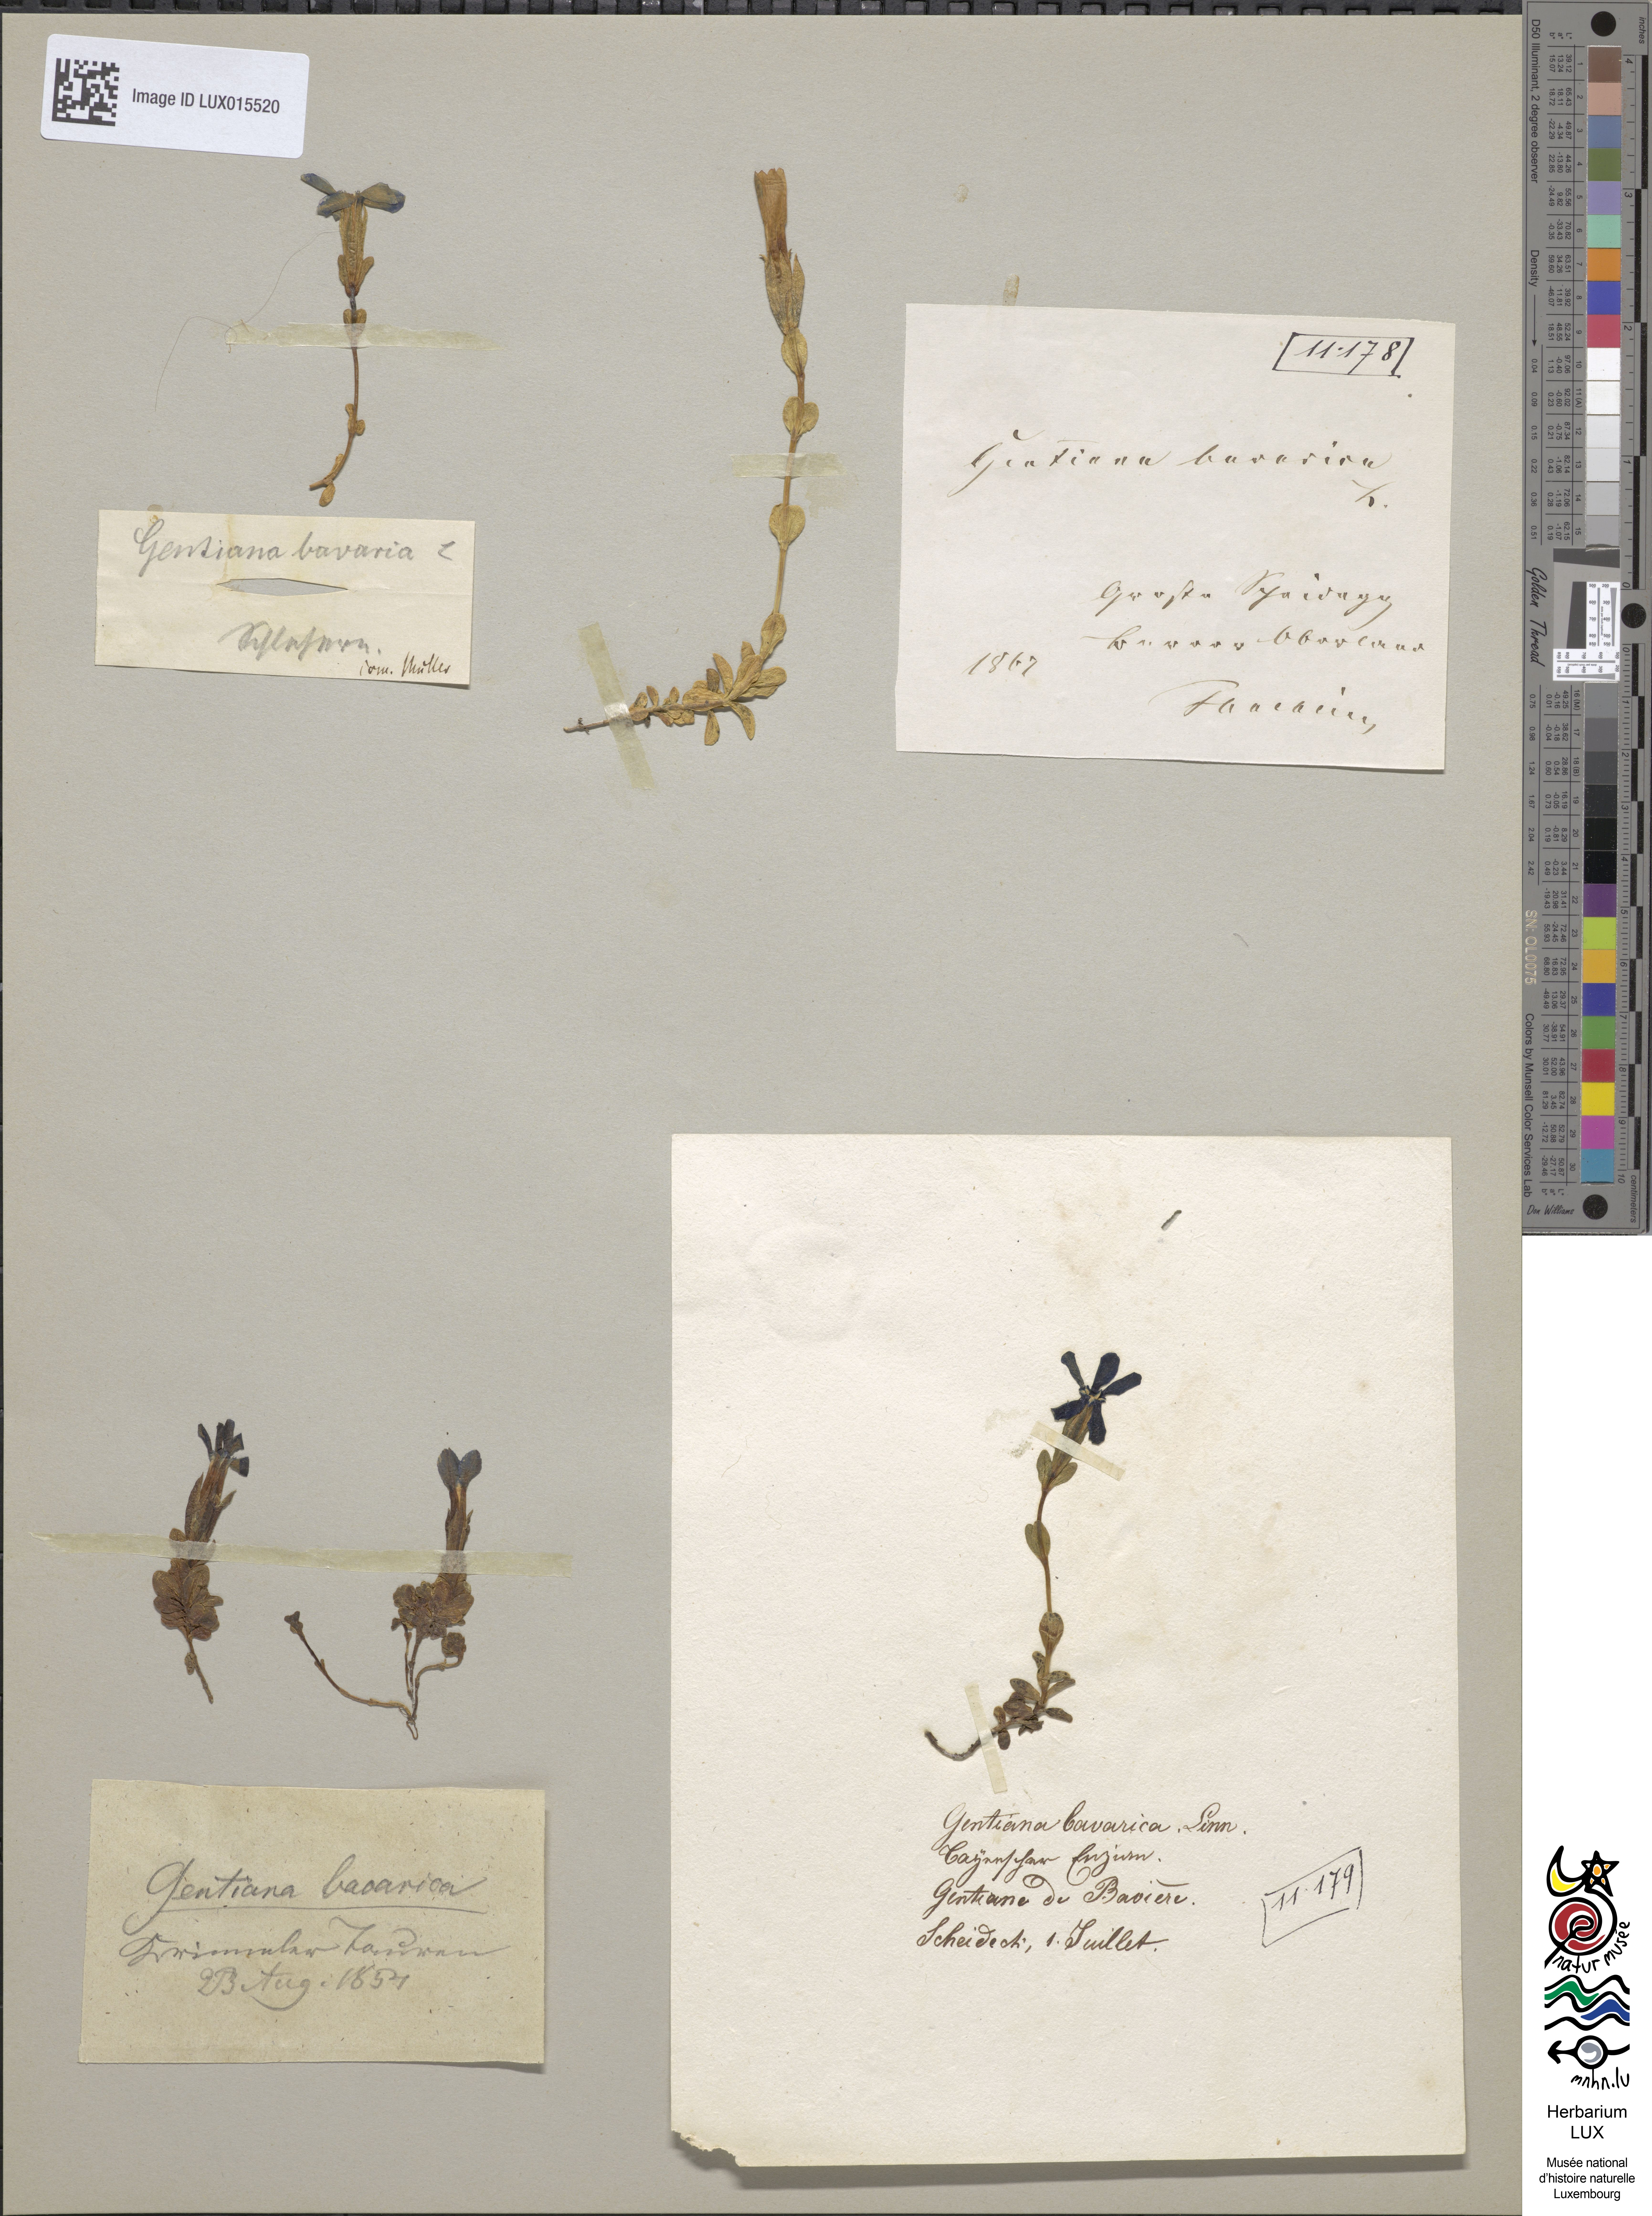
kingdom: Plantae
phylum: Tracheophyta
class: Magnoliopsida
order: Gentianales
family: Gentianaceae
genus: Gentiana
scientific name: Gentiana bavarica
